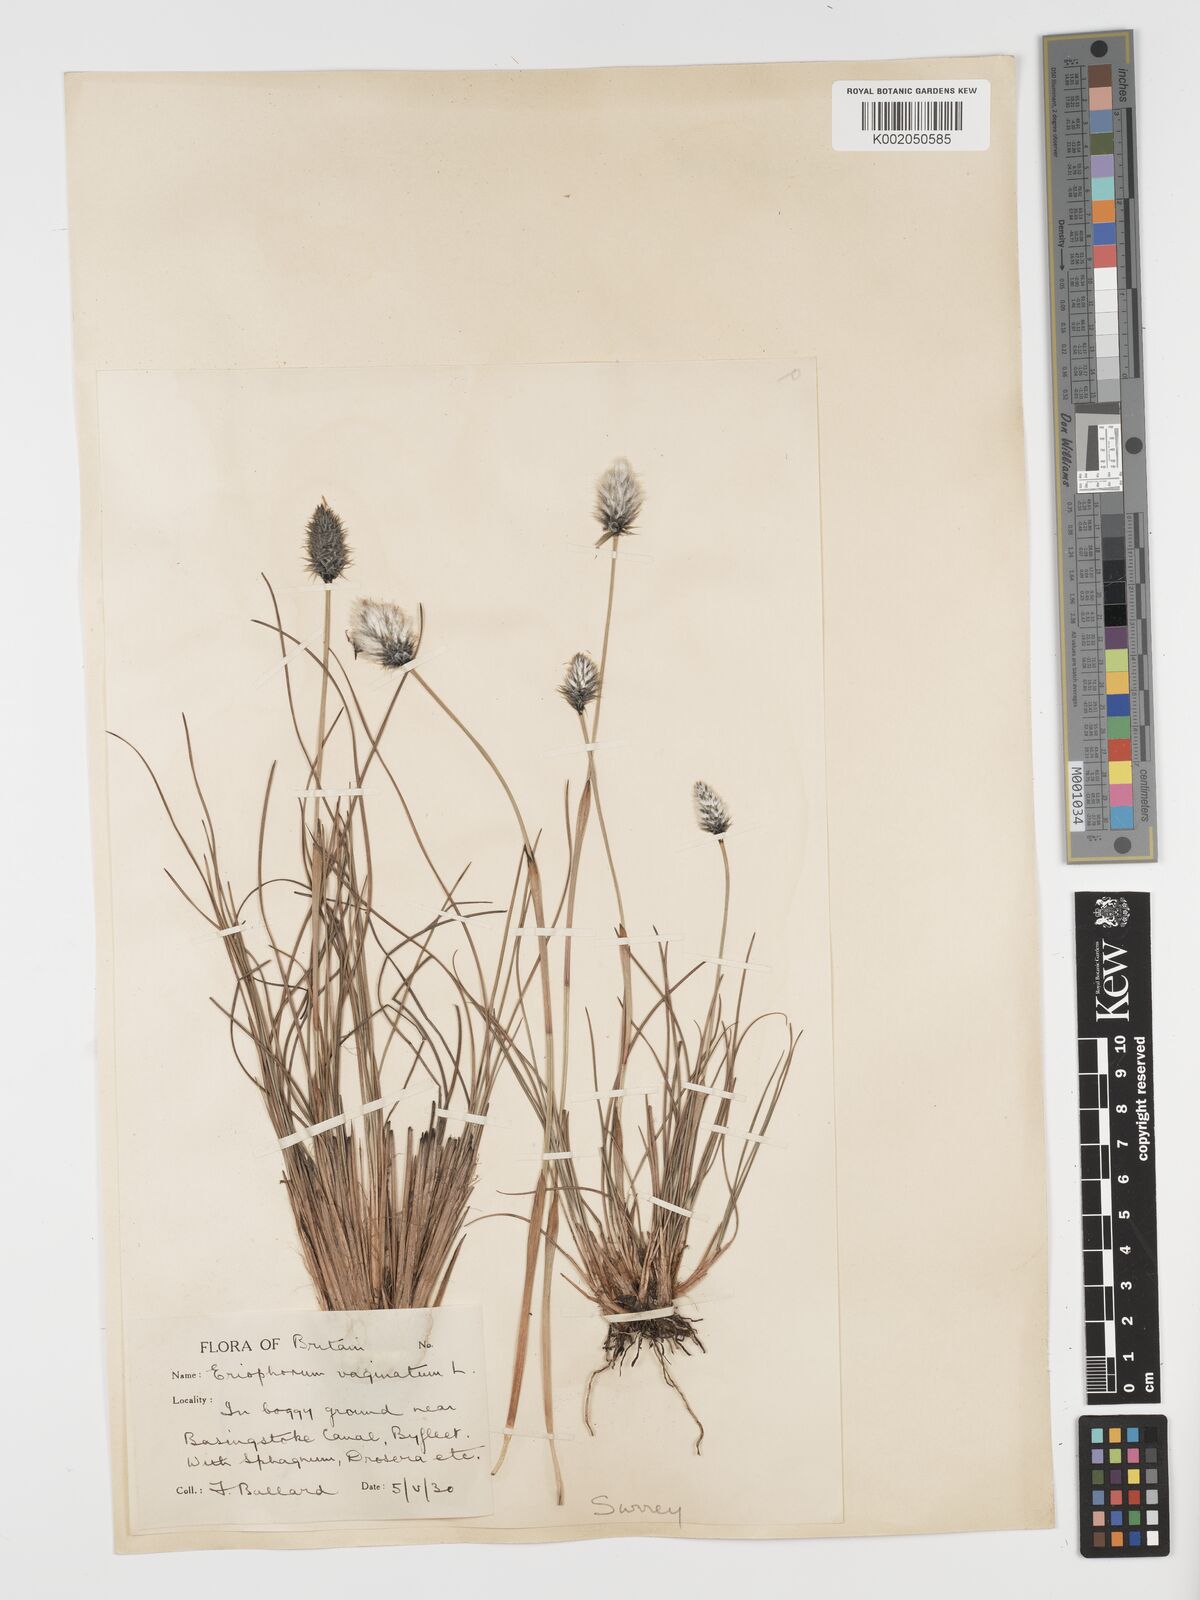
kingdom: Plantae
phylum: Tracheophyta
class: Liliopsida
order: Poales
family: Cyperaceae
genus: Eriophorum
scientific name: Eriophorum vaginatum
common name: Hare's-tail cottongrass
